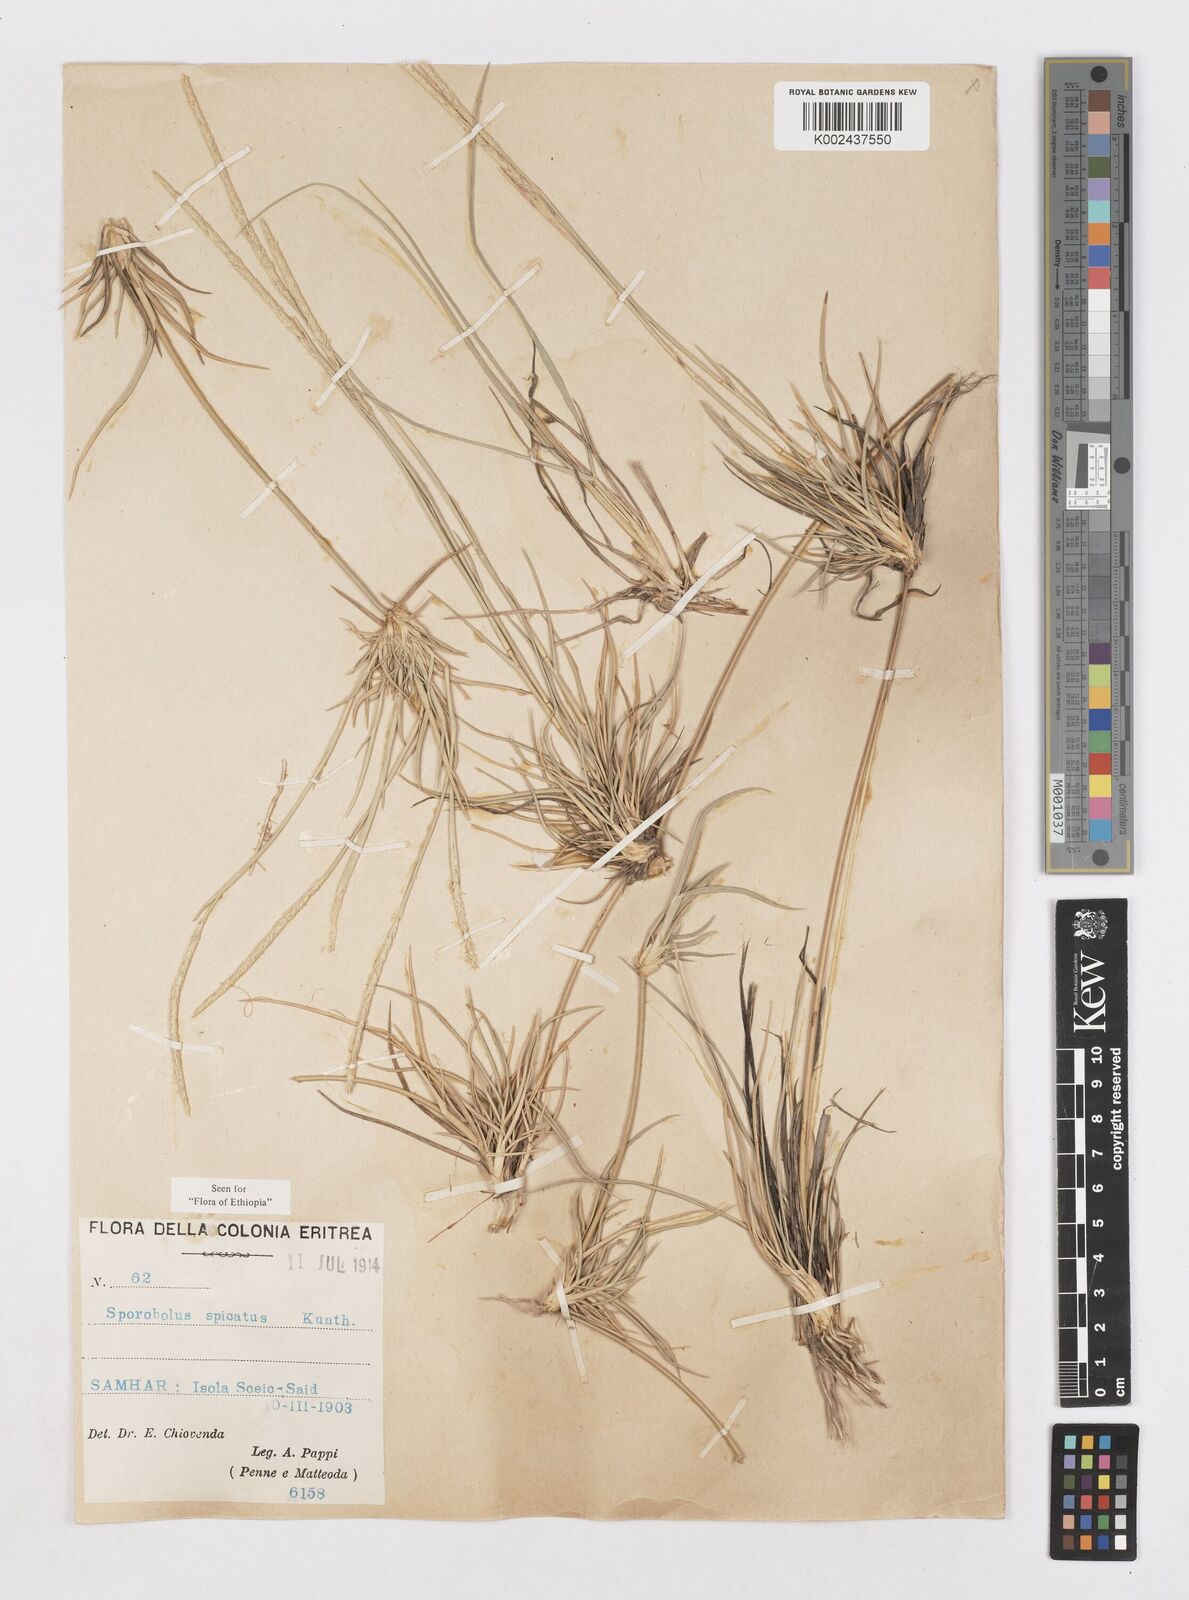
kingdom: Plantae
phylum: Tracheophyta
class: Liliopsida
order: Poales
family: Poaceae
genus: Sporobolus
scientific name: Sporobolus spicatus
